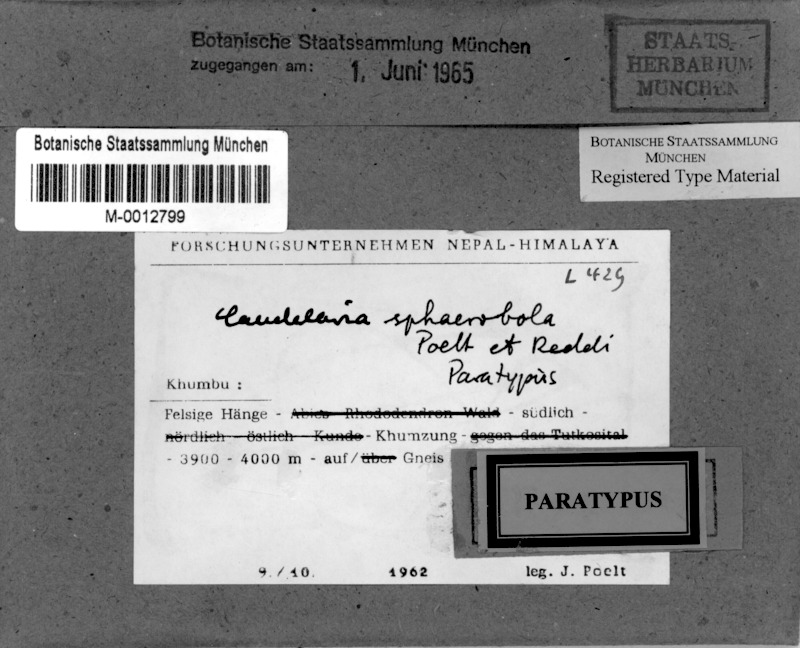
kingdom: Fungi
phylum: Ascomycota
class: Candelariomycetes
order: Candelariales
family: Candelariaceae
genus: Candelaria
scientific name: Candelaria
